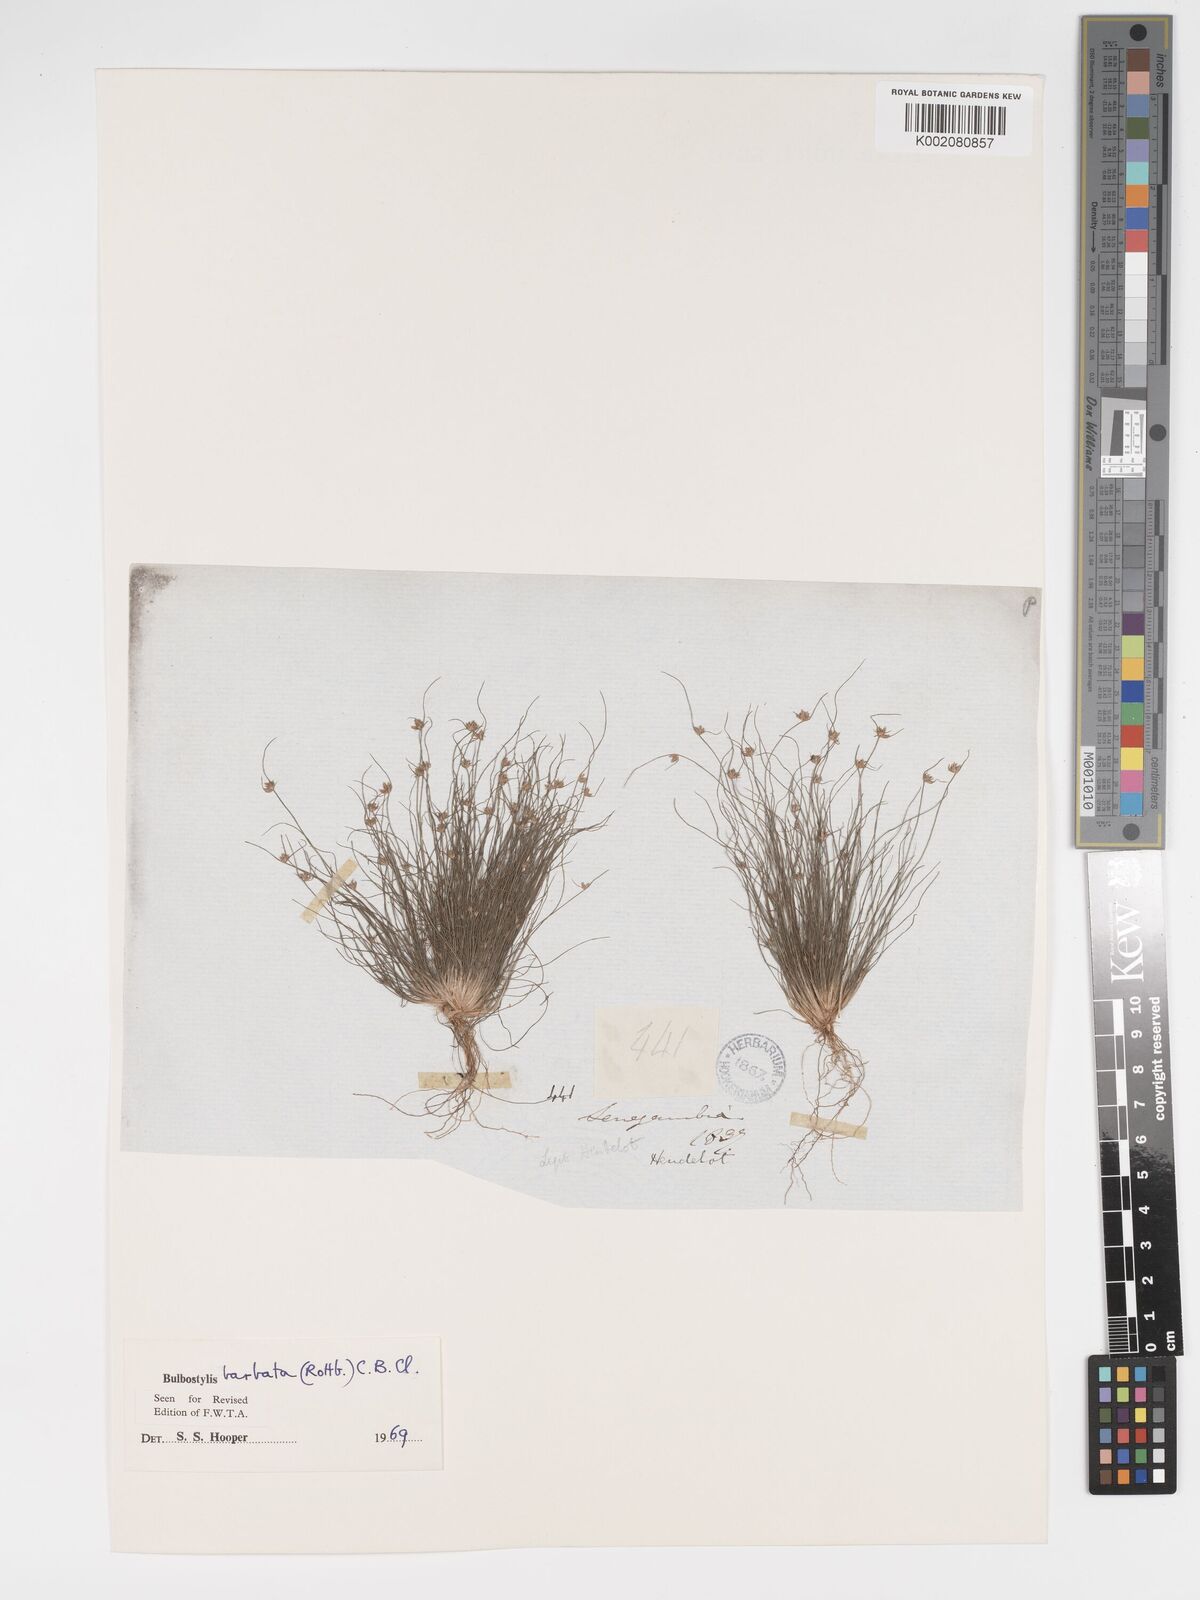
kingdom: Plantae
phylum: Tracheophyta
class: Liliopsida
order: Poales
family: Cyperaceae
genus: Bulbostylis
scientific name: Bulbostylis barbata
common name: Watergrass
